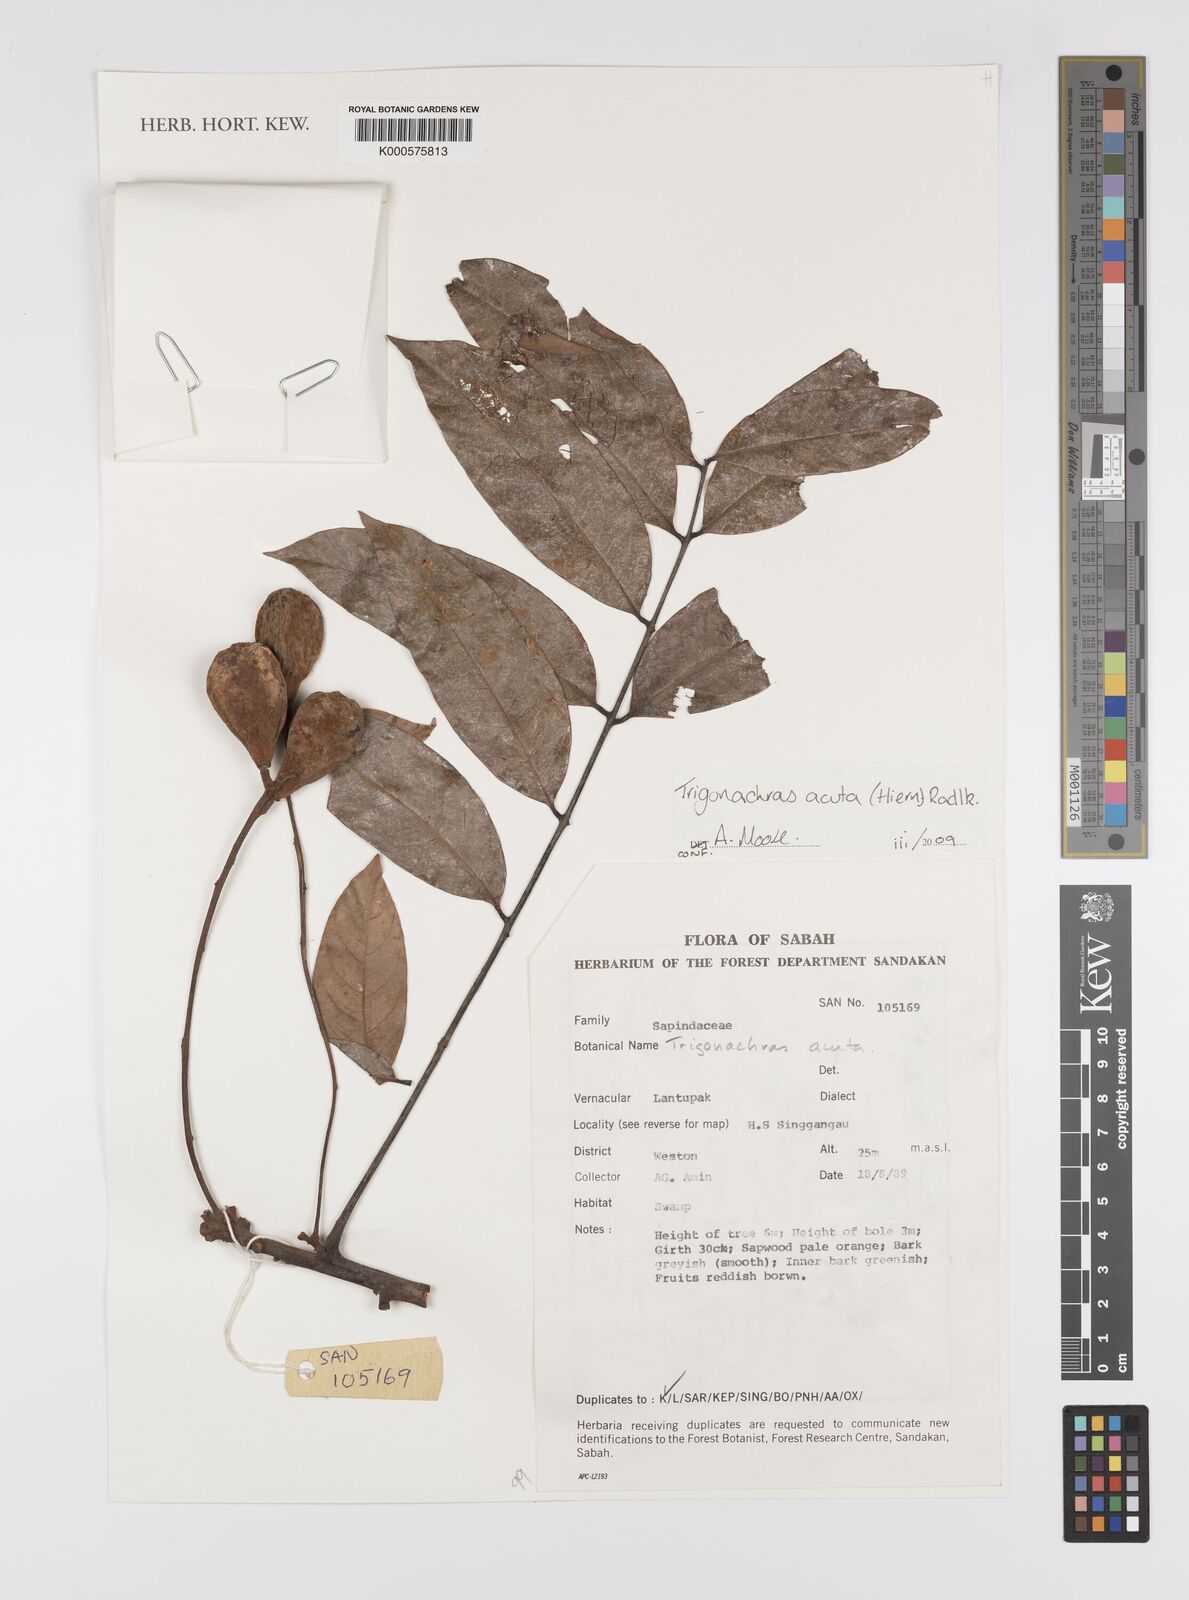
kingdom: Plantae
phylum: Tracheophyta
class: Magnoliopsida
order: Sapindales
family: Sapindaceae
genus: Trigonachras
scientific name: Trigonachras acuta
